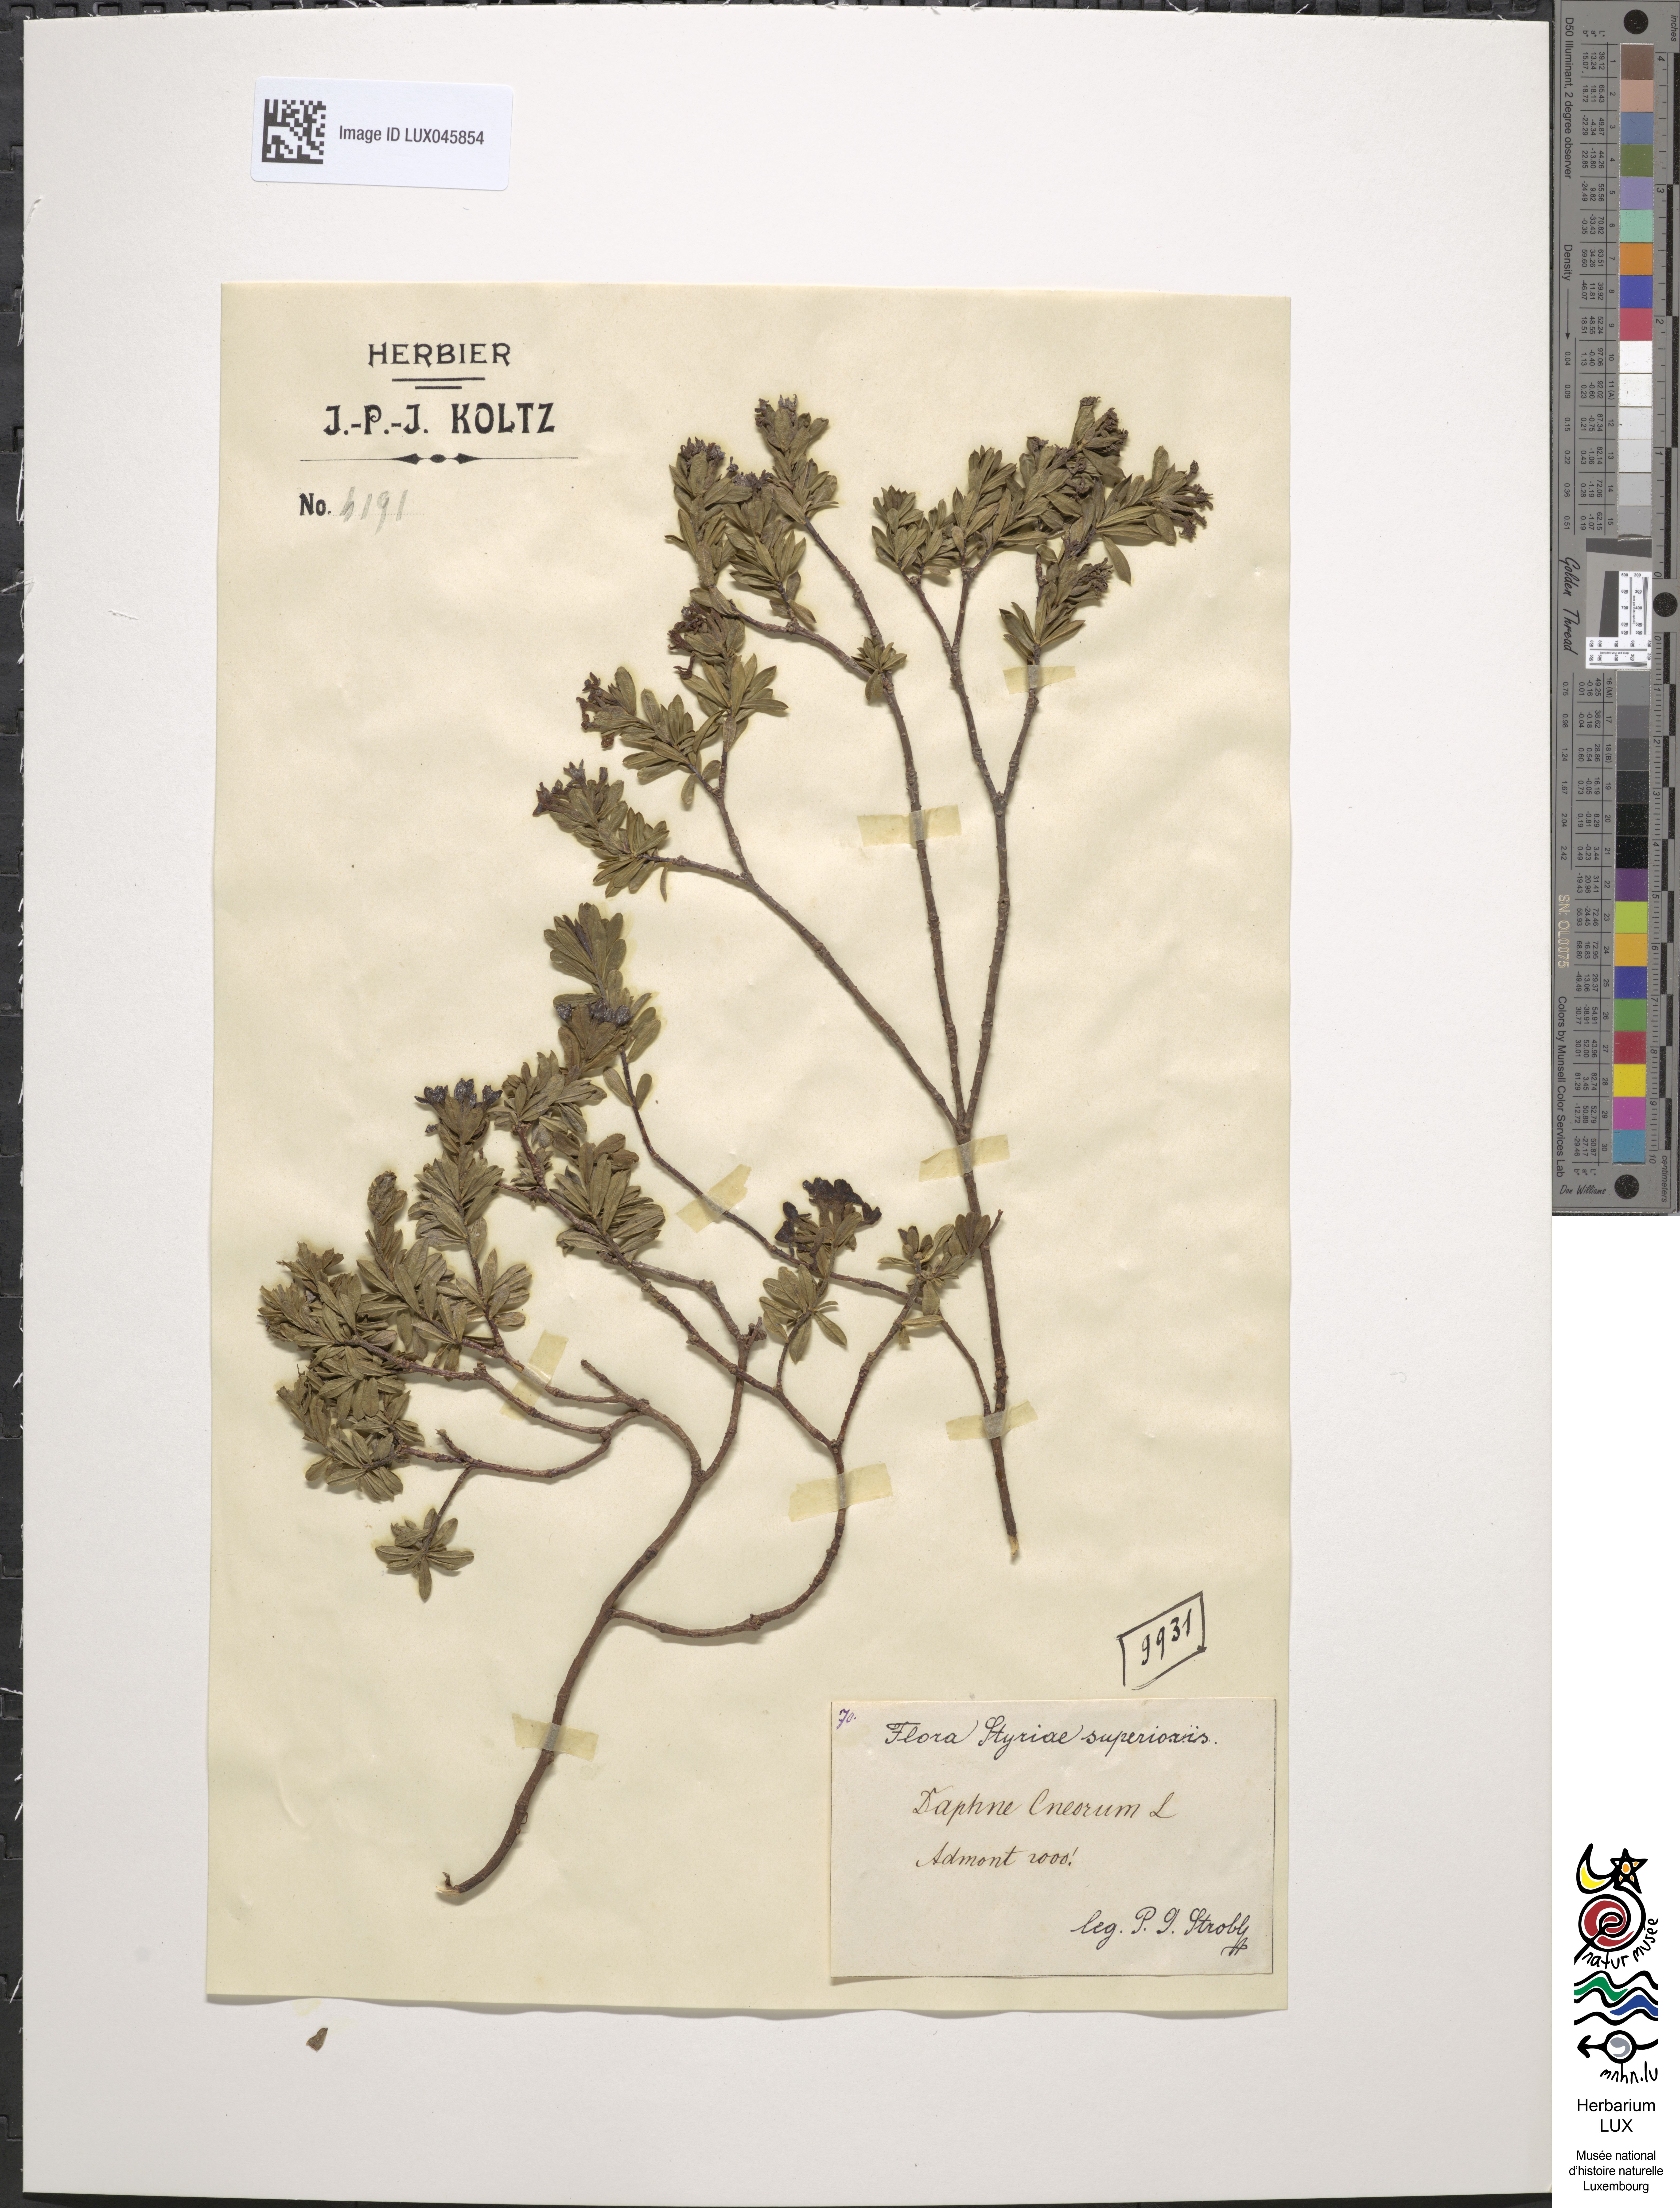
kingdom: Plantae
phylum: Tracheophyta
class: Magnoliopsida
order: Malvales
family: Thymelaeaceae
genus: Daphne
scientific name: Daphne cneorum
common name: Garland-flower
